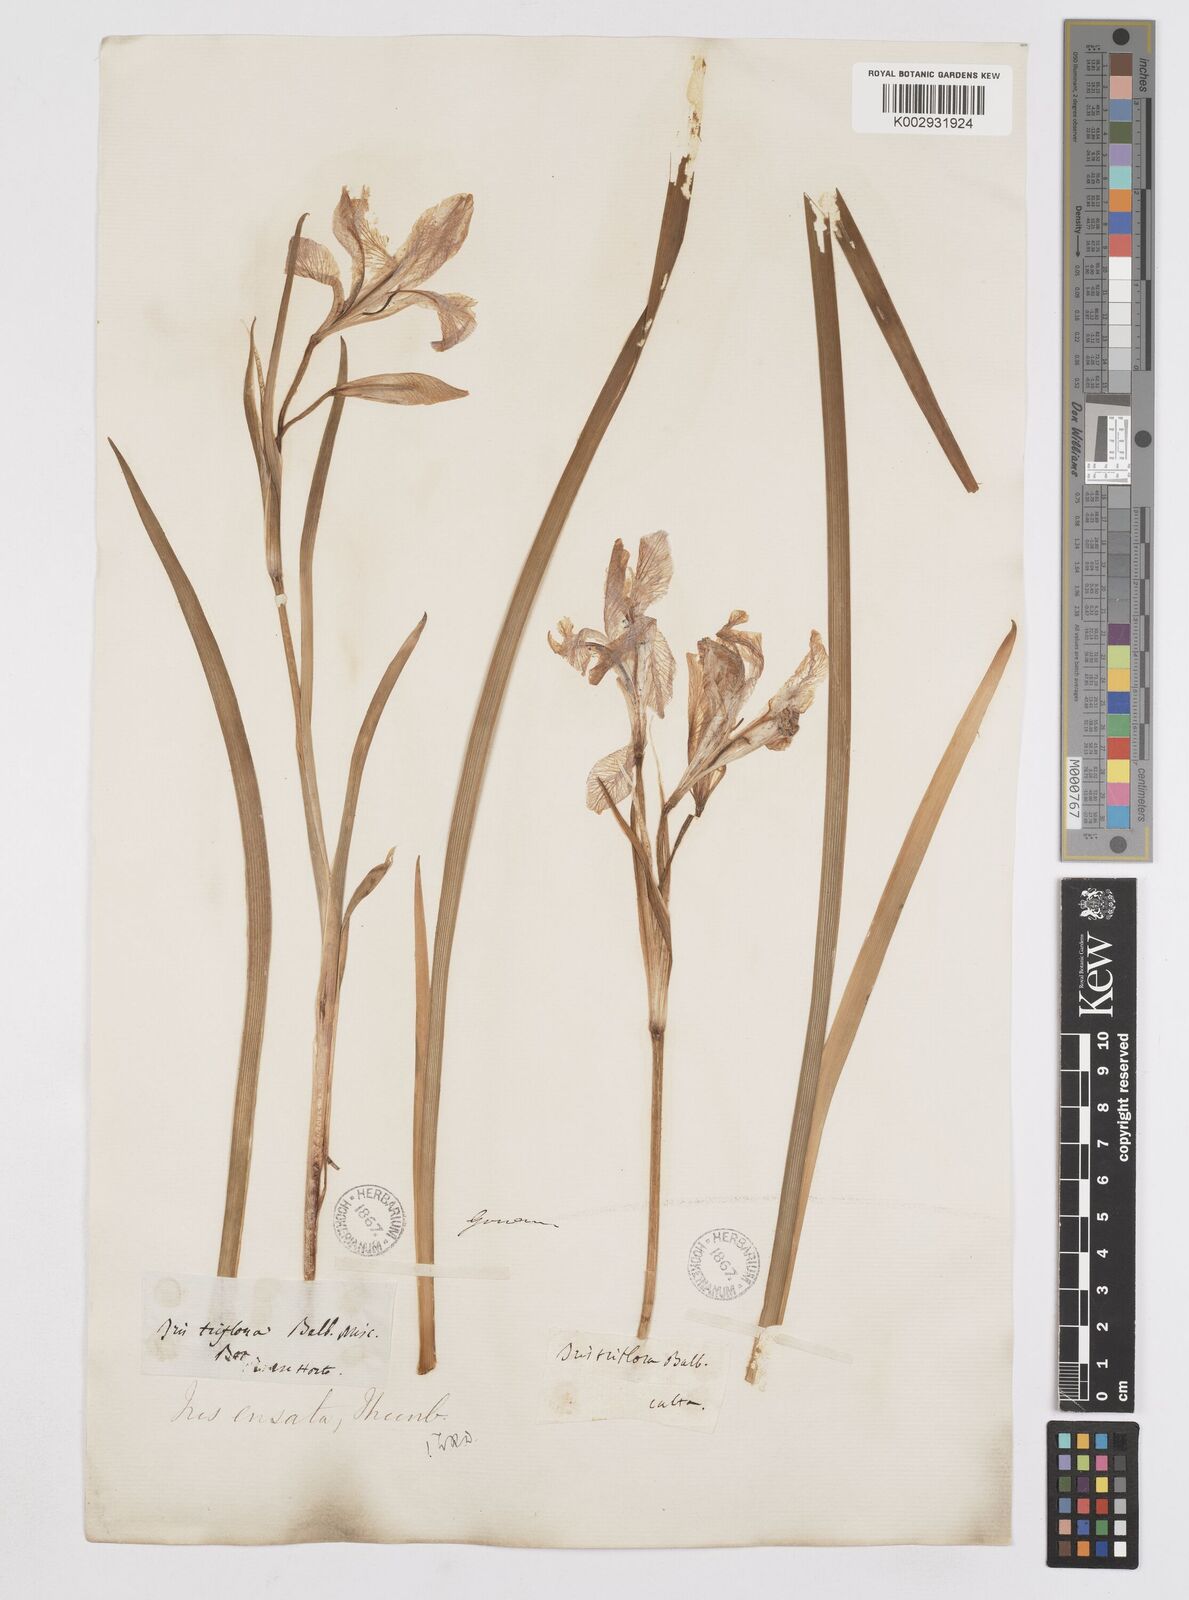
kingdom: Plantae
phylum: Tracheophyta
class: Liliopsida
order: Asparagales
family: Iridaceae
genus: Iris
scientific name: Iris ensata
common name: Beaked iris
